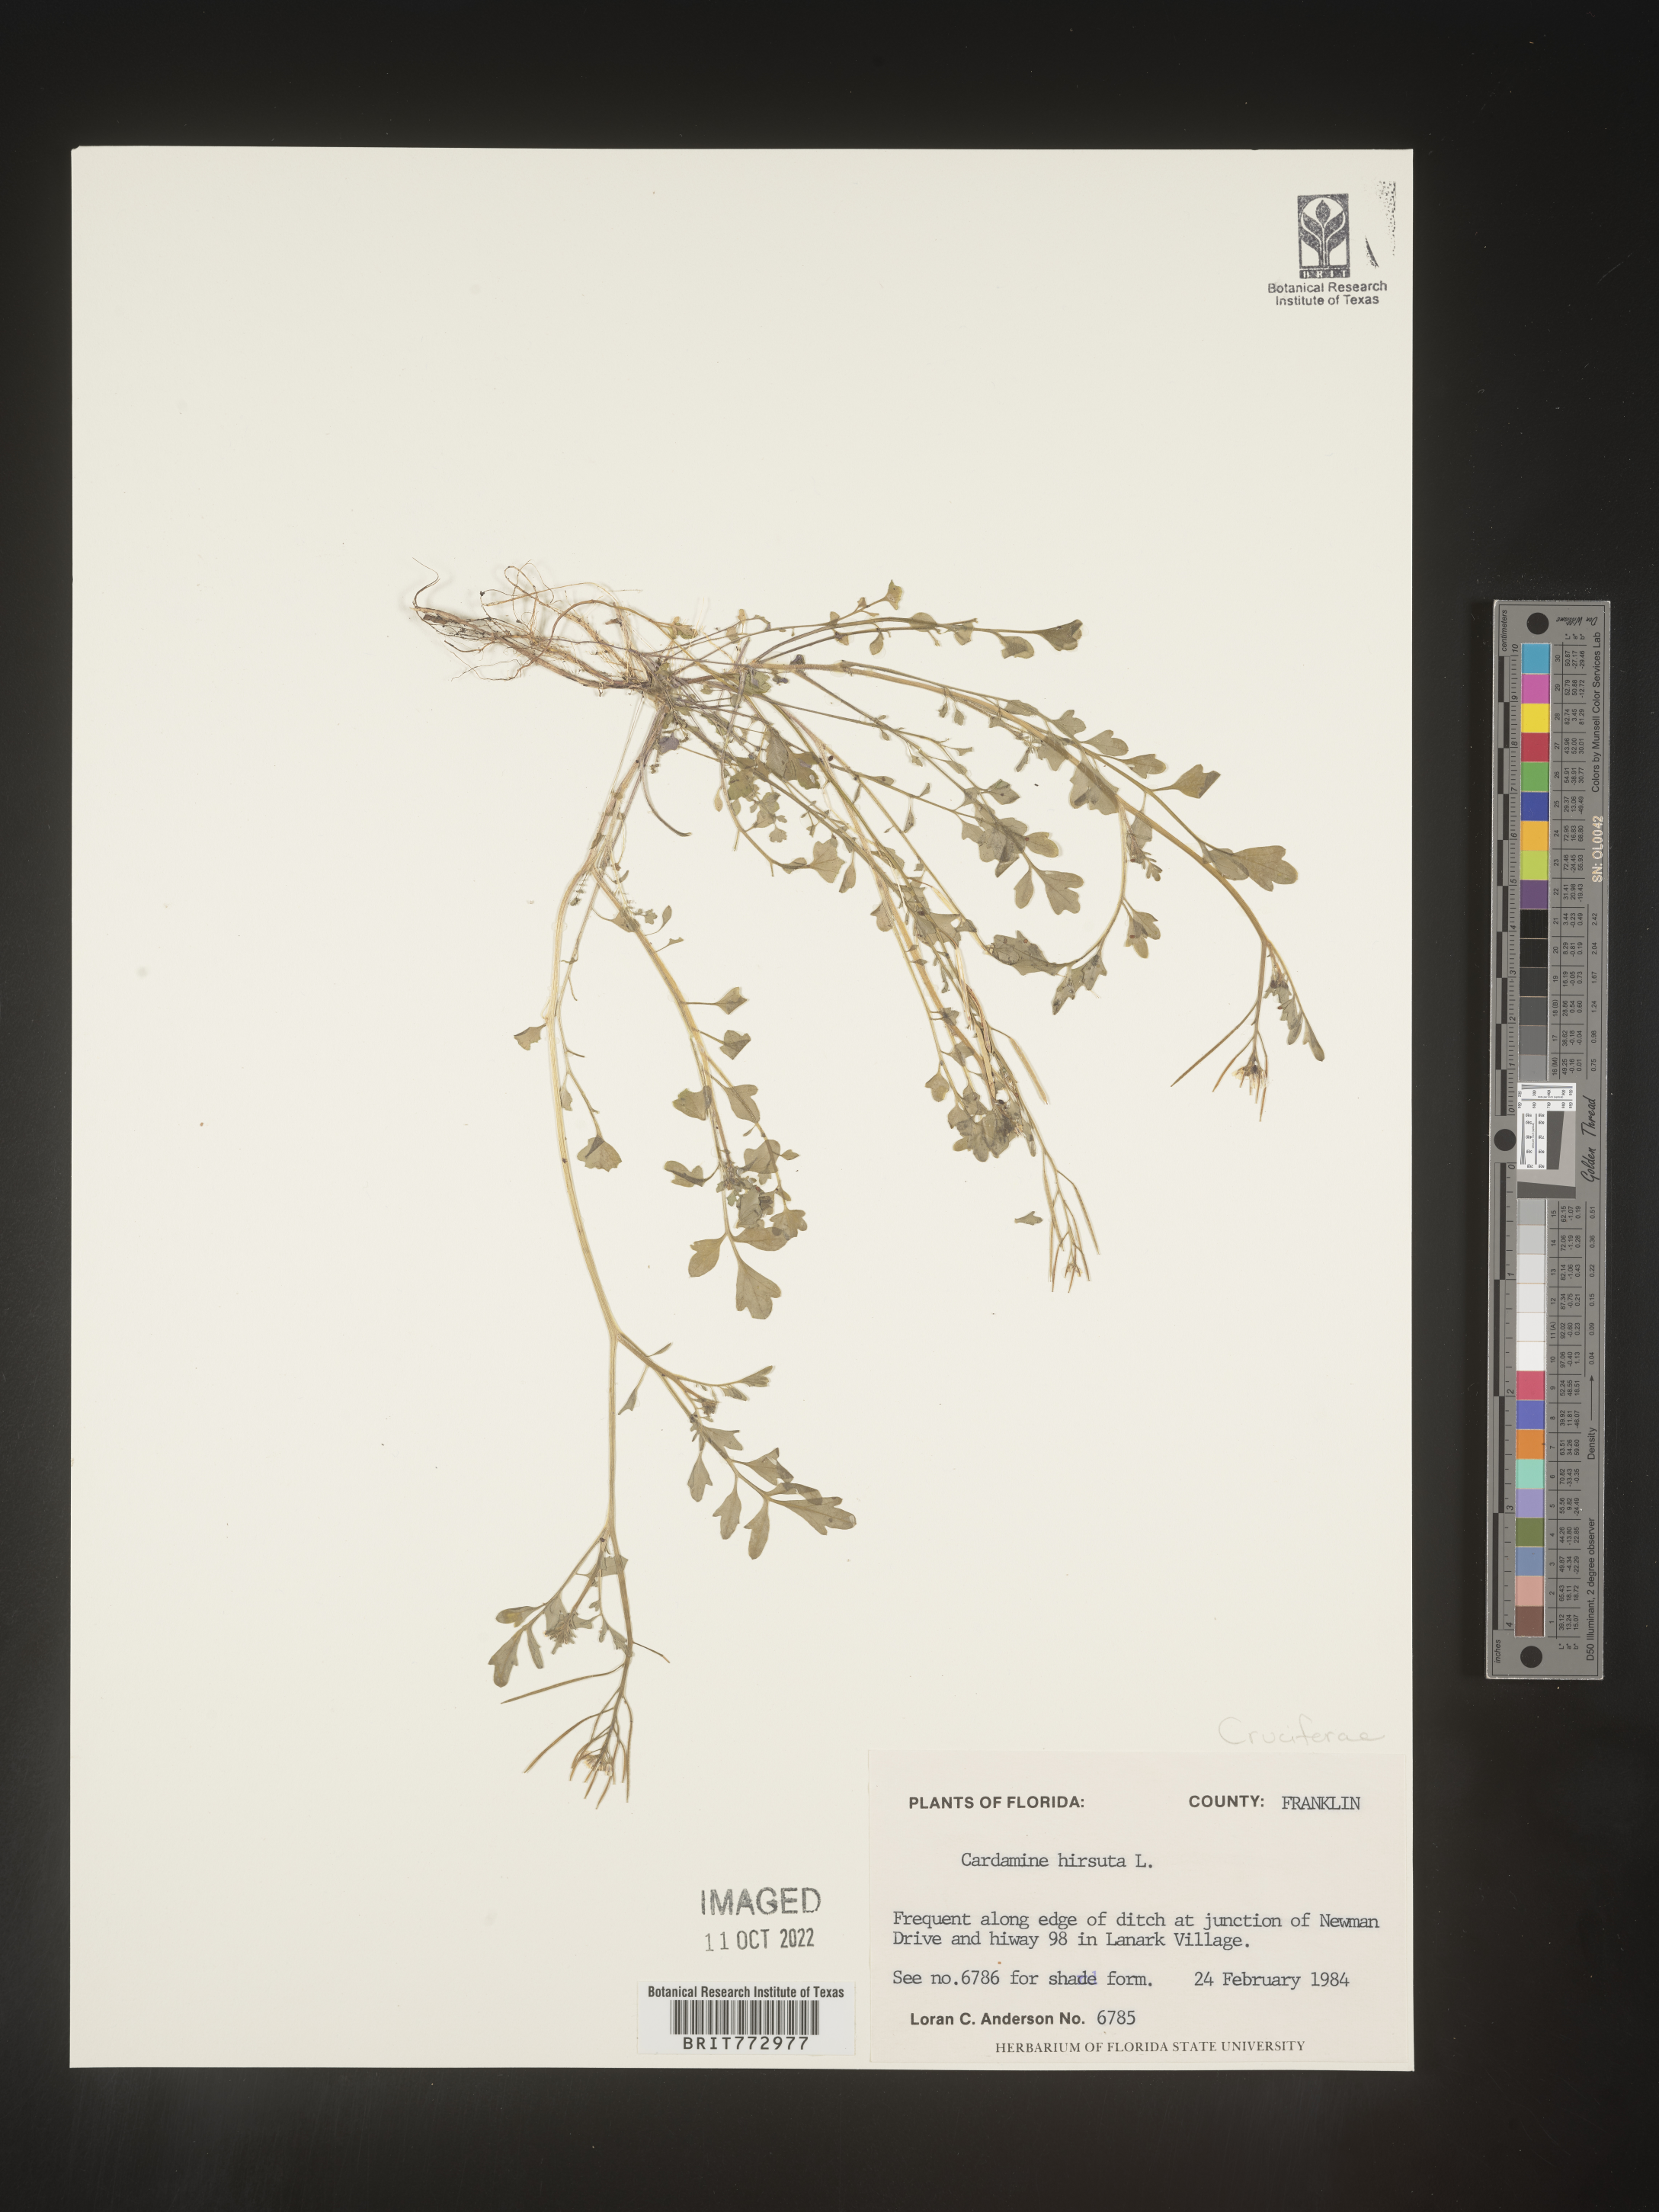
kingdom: Plantae
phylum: Tracheophyta
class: Magnoliopsida
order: Brassicales
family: Brassicaceae
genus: Cardamine
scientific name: Cardamine hirsuta
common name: Hairy bittercress
